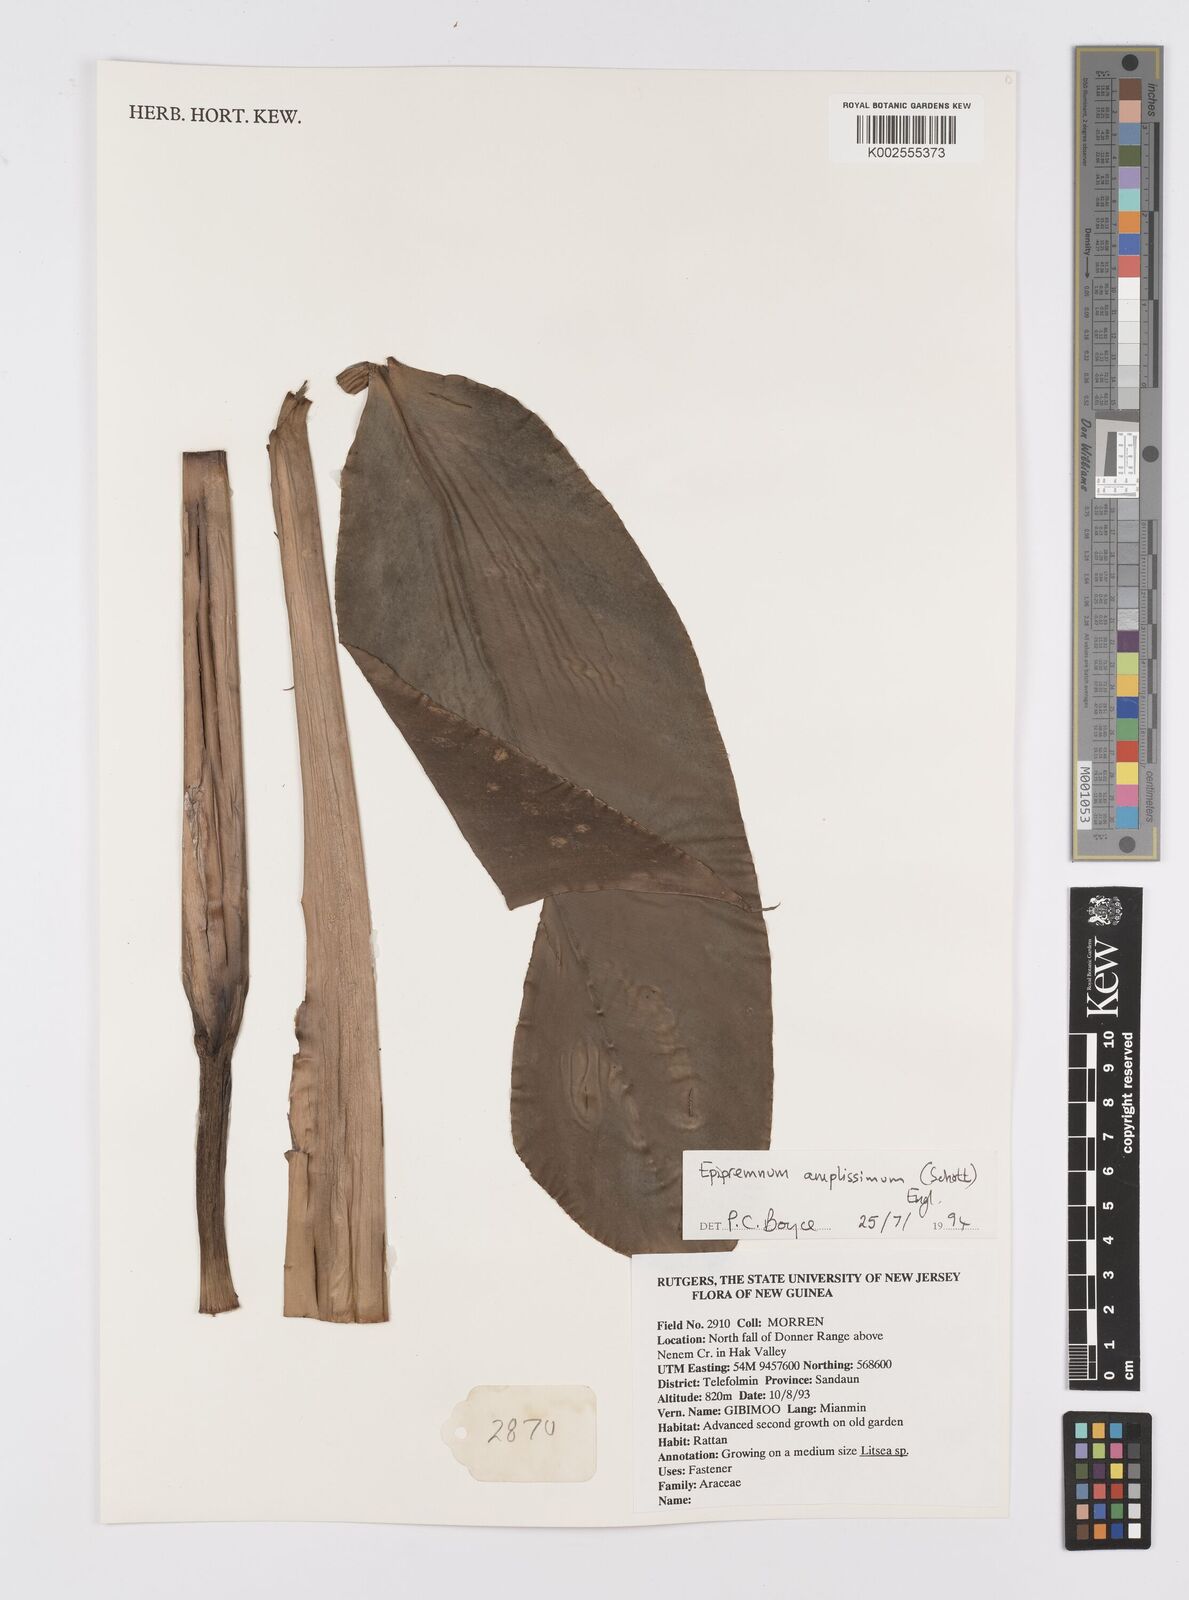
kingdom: Plantae
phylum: Tracheophyta
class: Liliopsida
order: Alismatales
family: Araceae
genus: Epipremnum
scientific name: Epipremnum amplissimum
